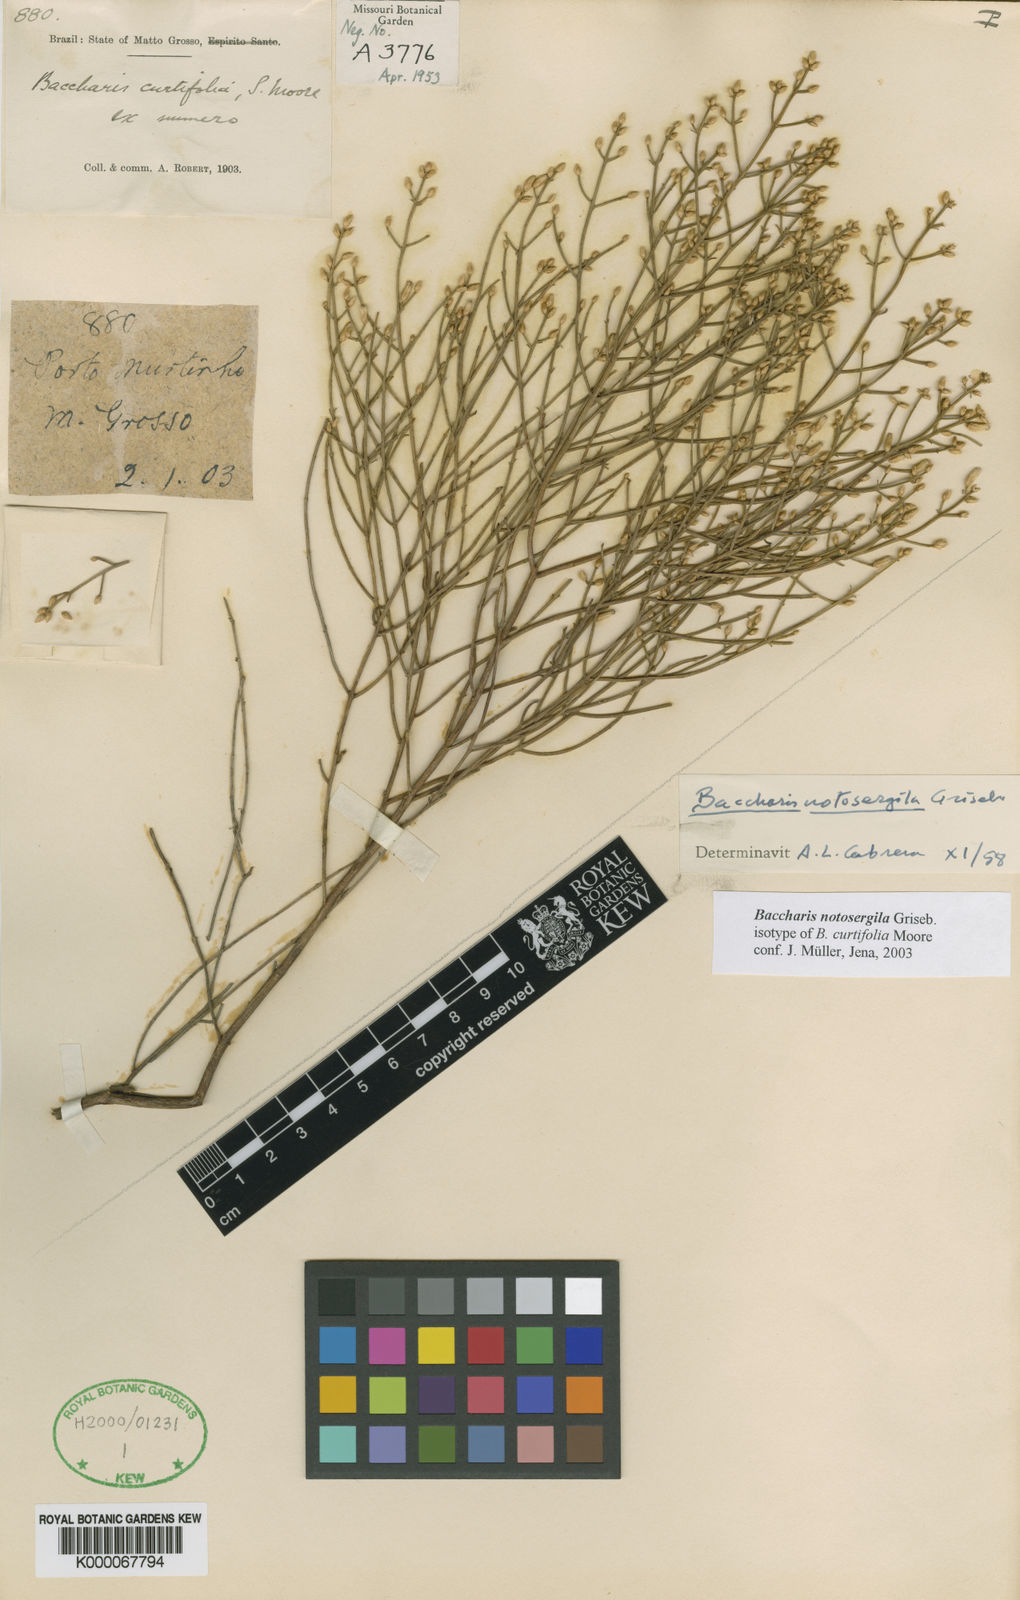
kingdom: Plantae
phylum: Tracheophyta
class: Magnoliopsida
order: Asterales
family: Asteraceae
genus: Baccharis
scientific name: Baccharis notosergila
